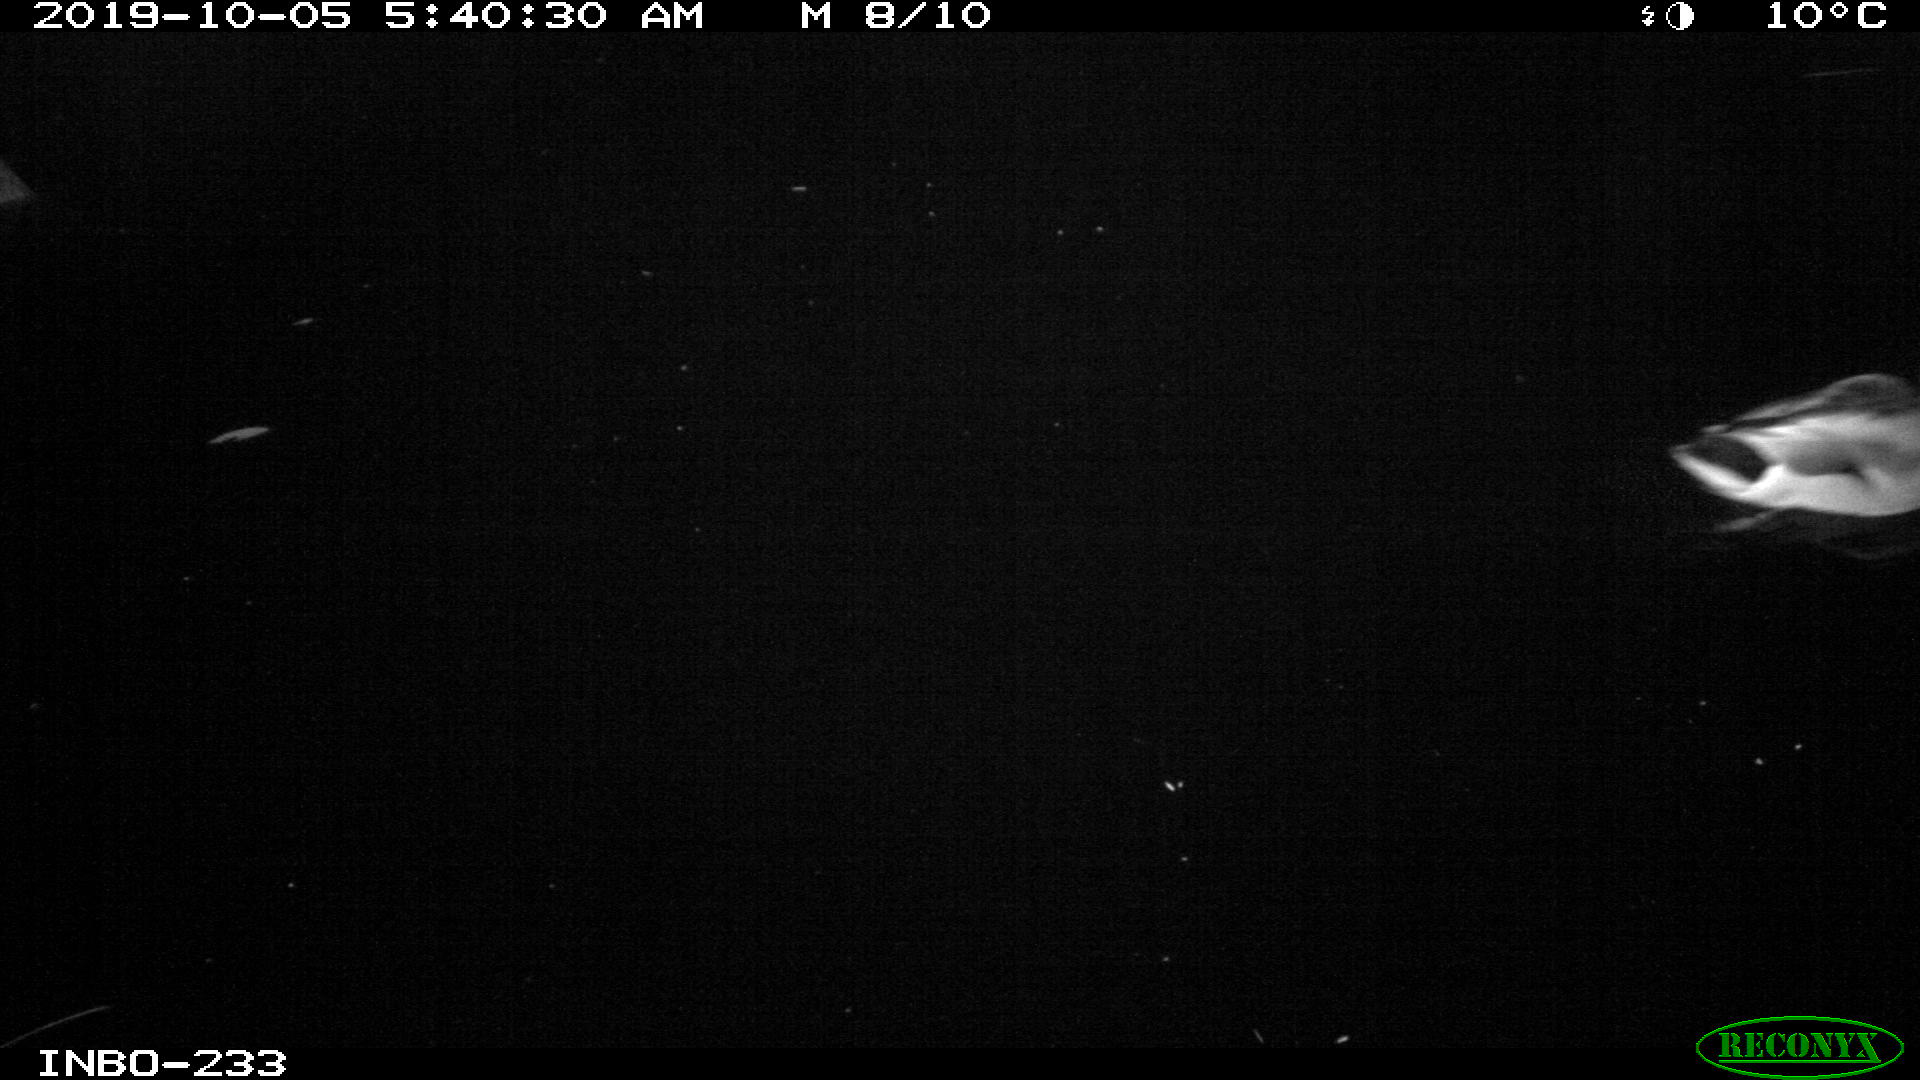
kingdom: Animalia
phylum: Chordata
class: Aves
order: Anseriformes
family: Anatidae
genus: Anas
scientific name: Anas platyrhynchos
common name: Mallard
